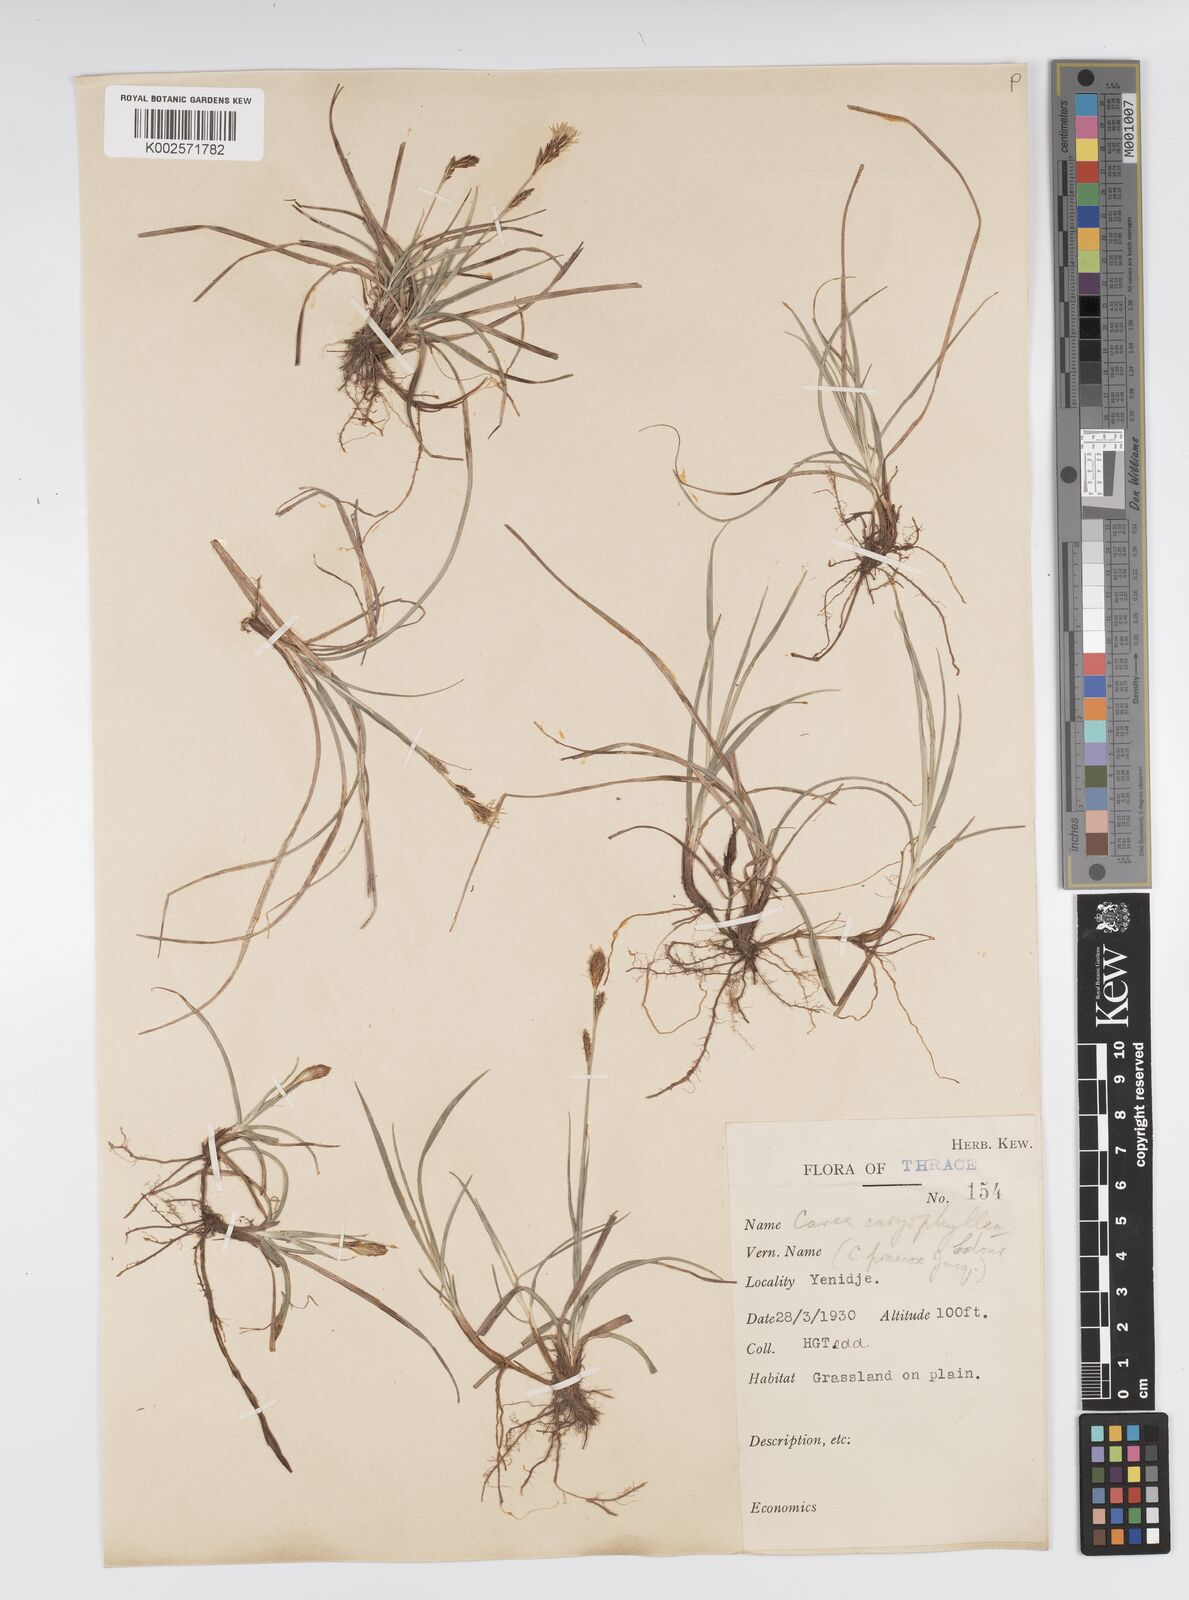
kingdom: Plantae
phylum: Tracheophyta
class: Liliopsida
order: Poales
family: Cyperaceae
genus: Carex
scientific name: Carex caryophyllea
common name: Spring sedge
